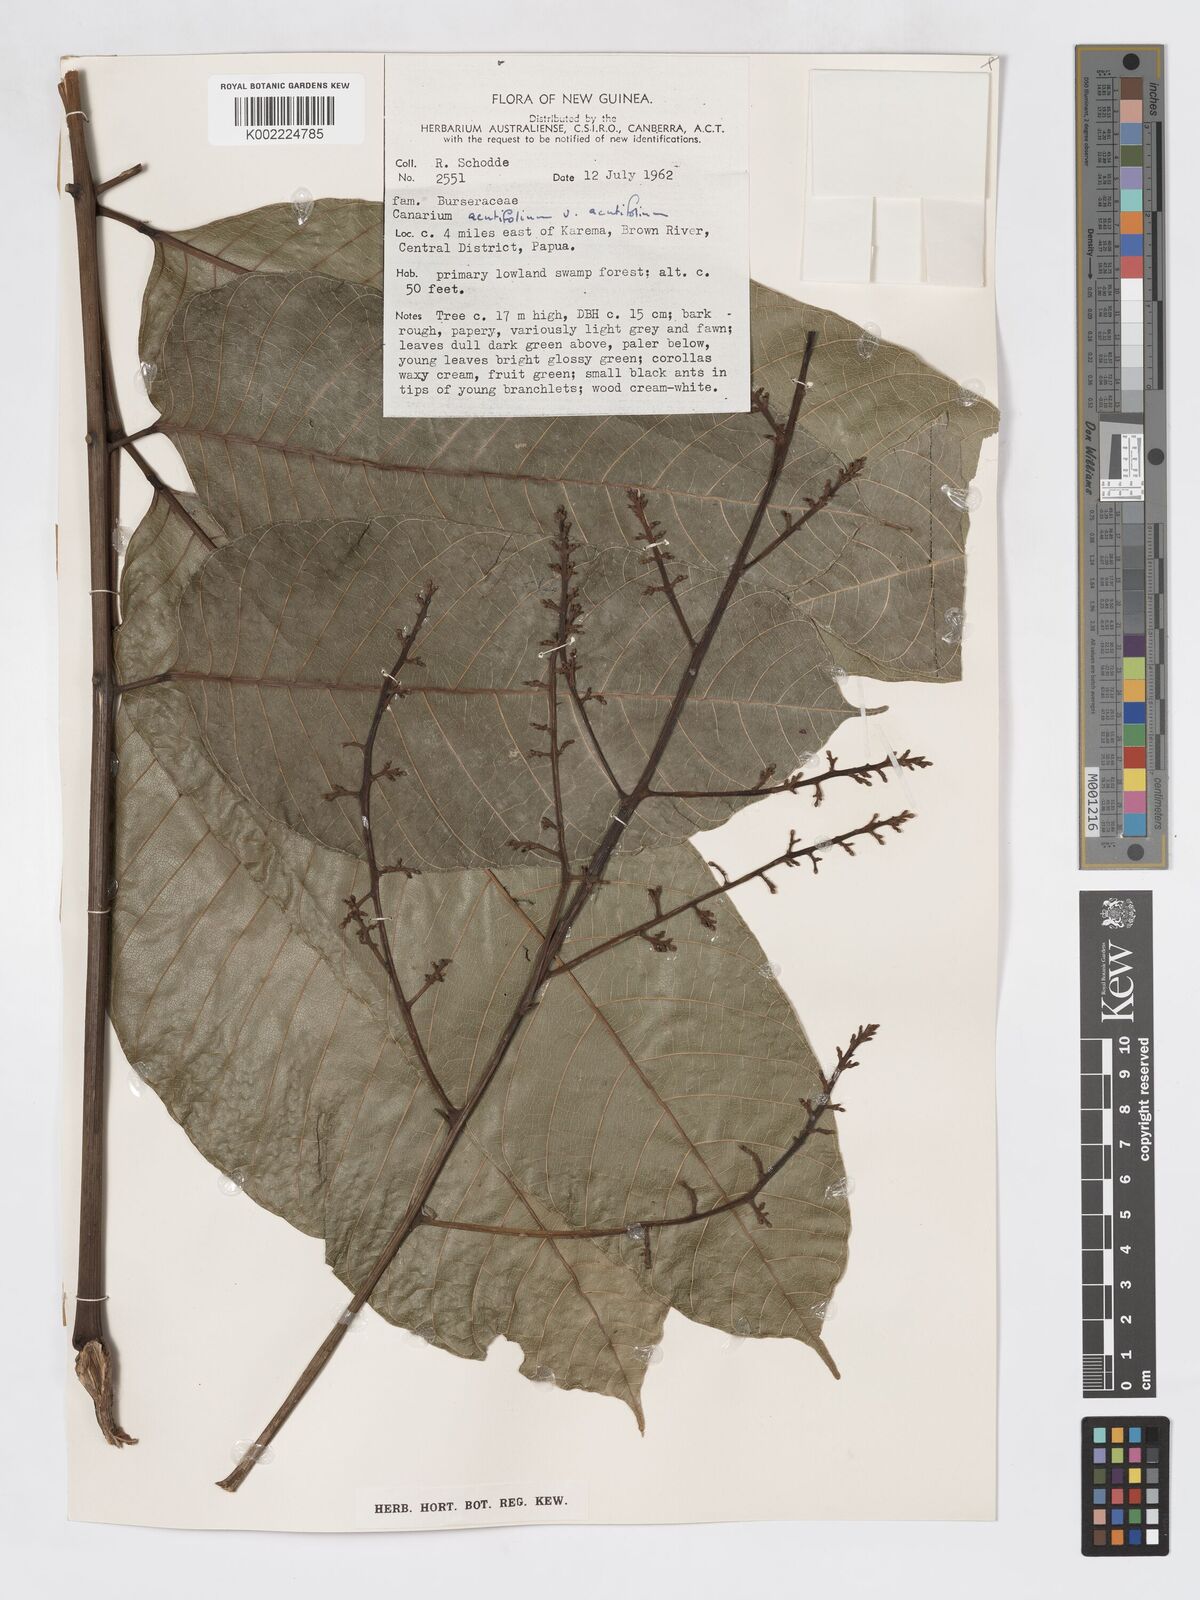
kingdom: Plantae
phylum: Tracheophyta
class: Magnoliopsida
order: Sapindales
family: Burseraceae
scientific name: Burseraceae
